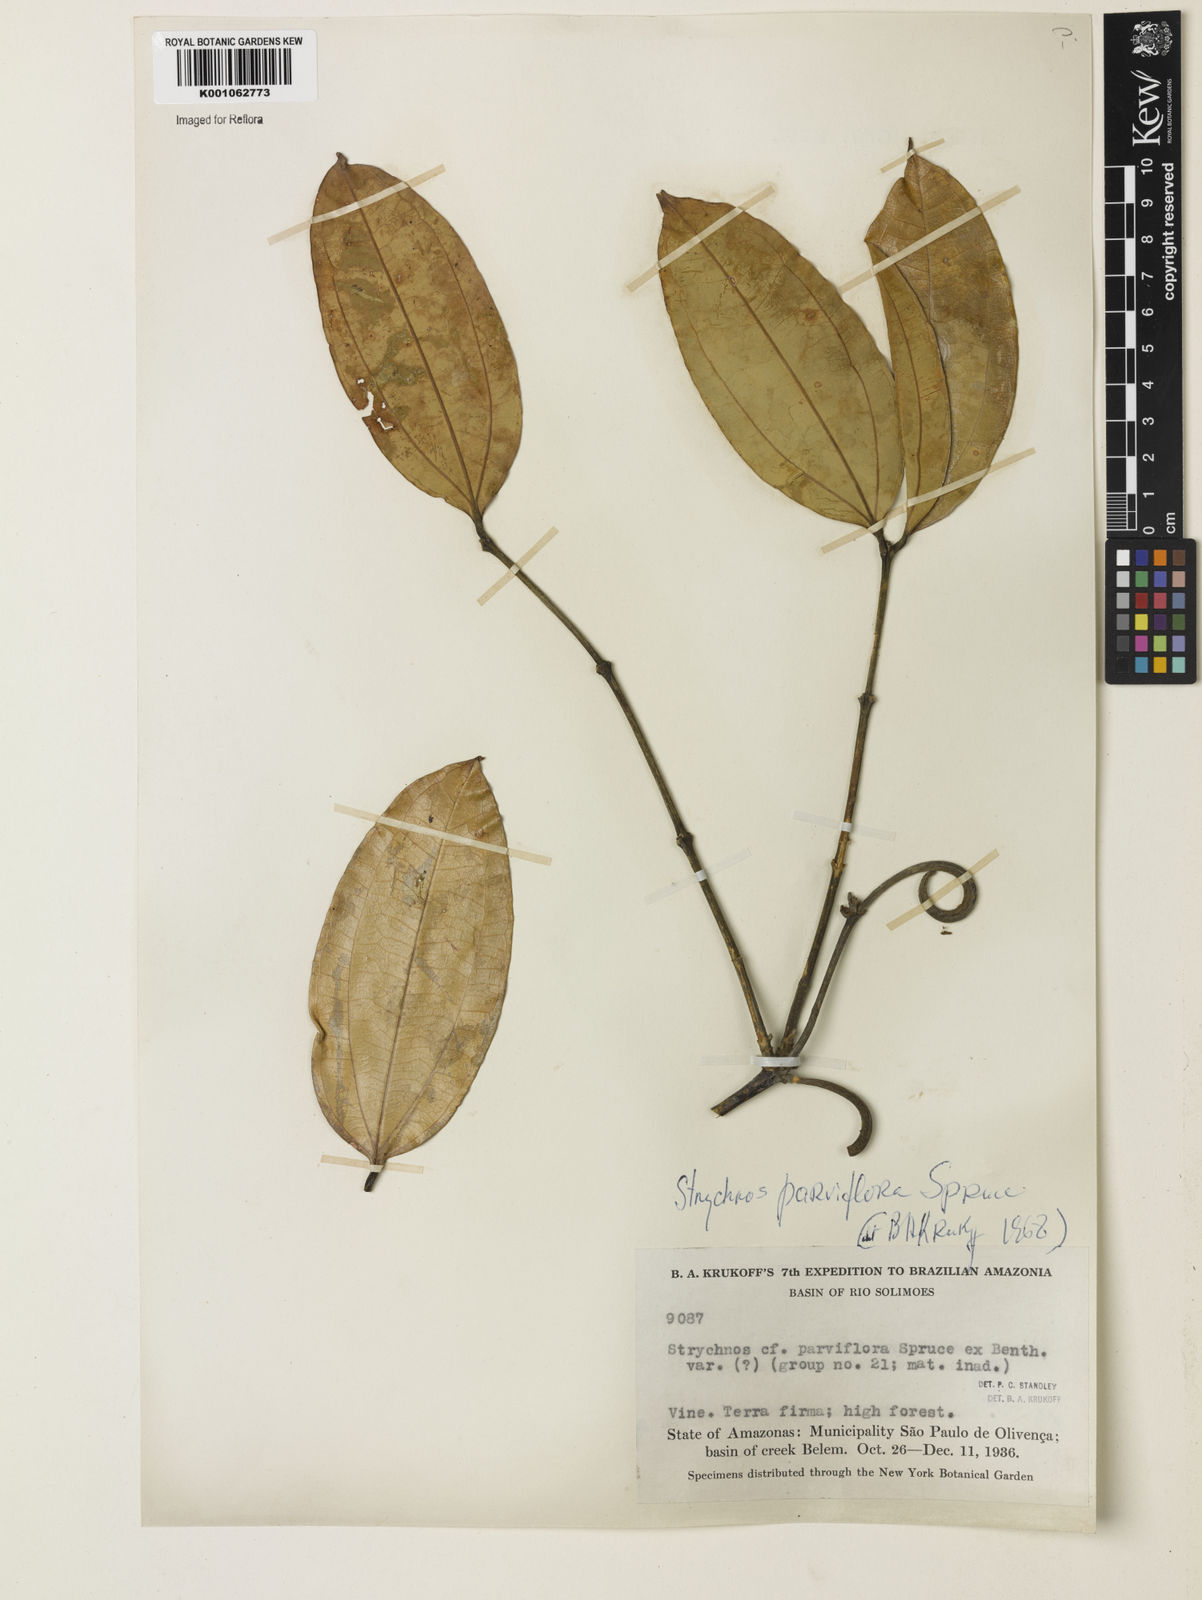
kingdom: Plantae
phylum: Tracheophyta
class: Magnoliopsida
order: Gentianales
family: Loganiaceae
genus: Strychnos
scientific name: Strychnos parviflora
